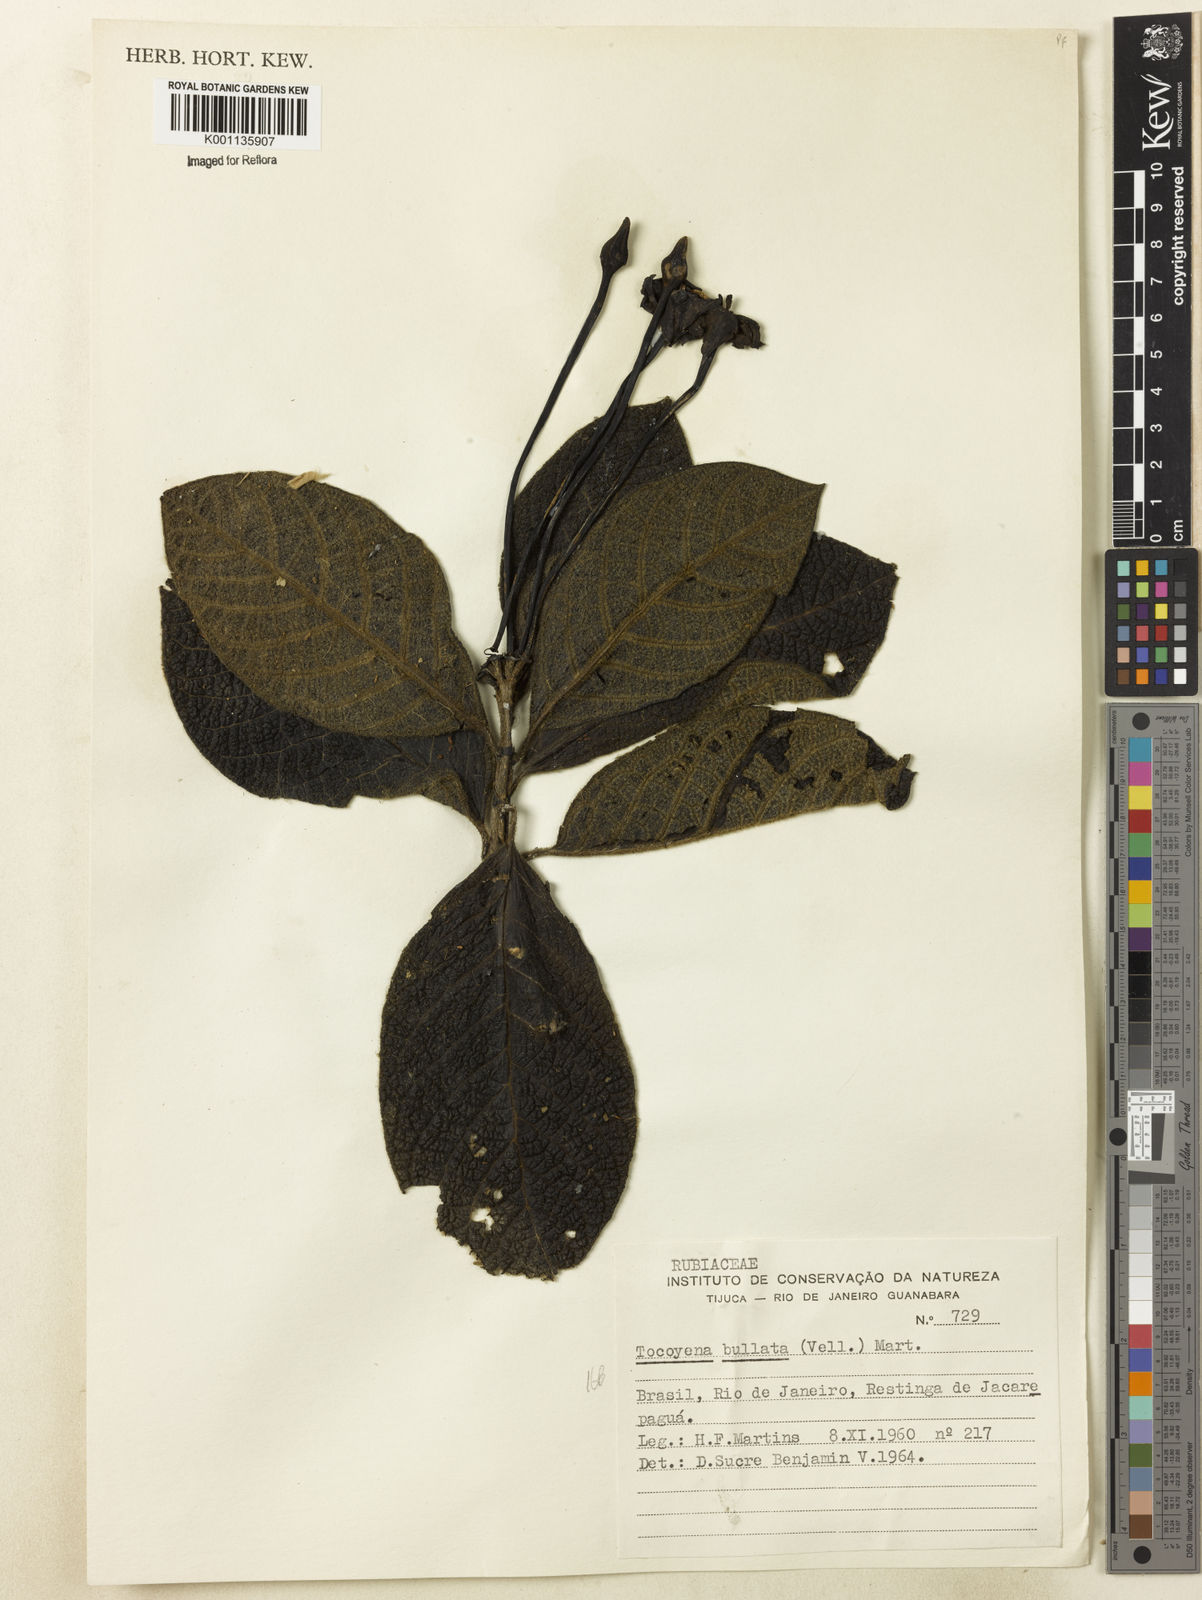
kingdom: Plantae
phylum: Tracheophyta
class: Magnoliopsida
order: Gentianales
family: Rubiaceae
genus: Tocoyena
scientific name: Tocoyena bullata
